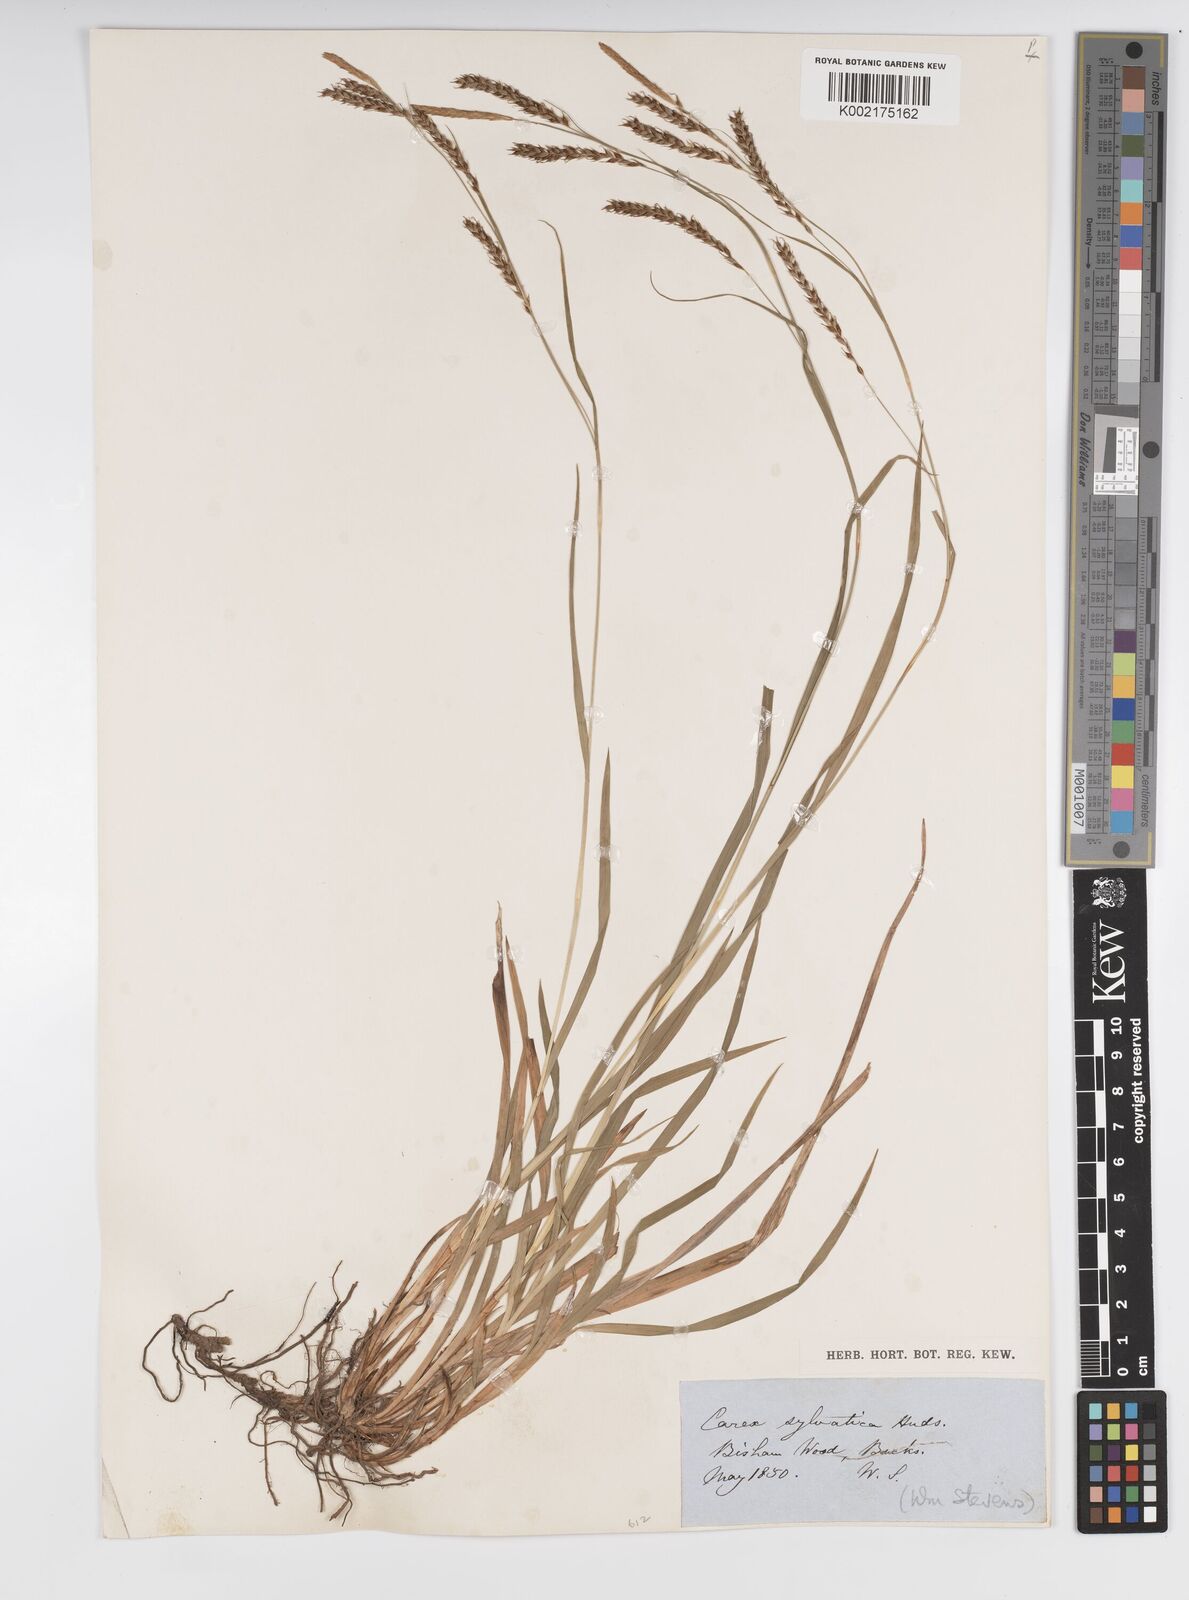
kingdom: Plantae
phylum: Tracheophyta
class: Liliopsida
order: Poales
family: Cyperaceae
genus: Carex
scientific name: Carex sylvatica
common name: Wood-sedge
